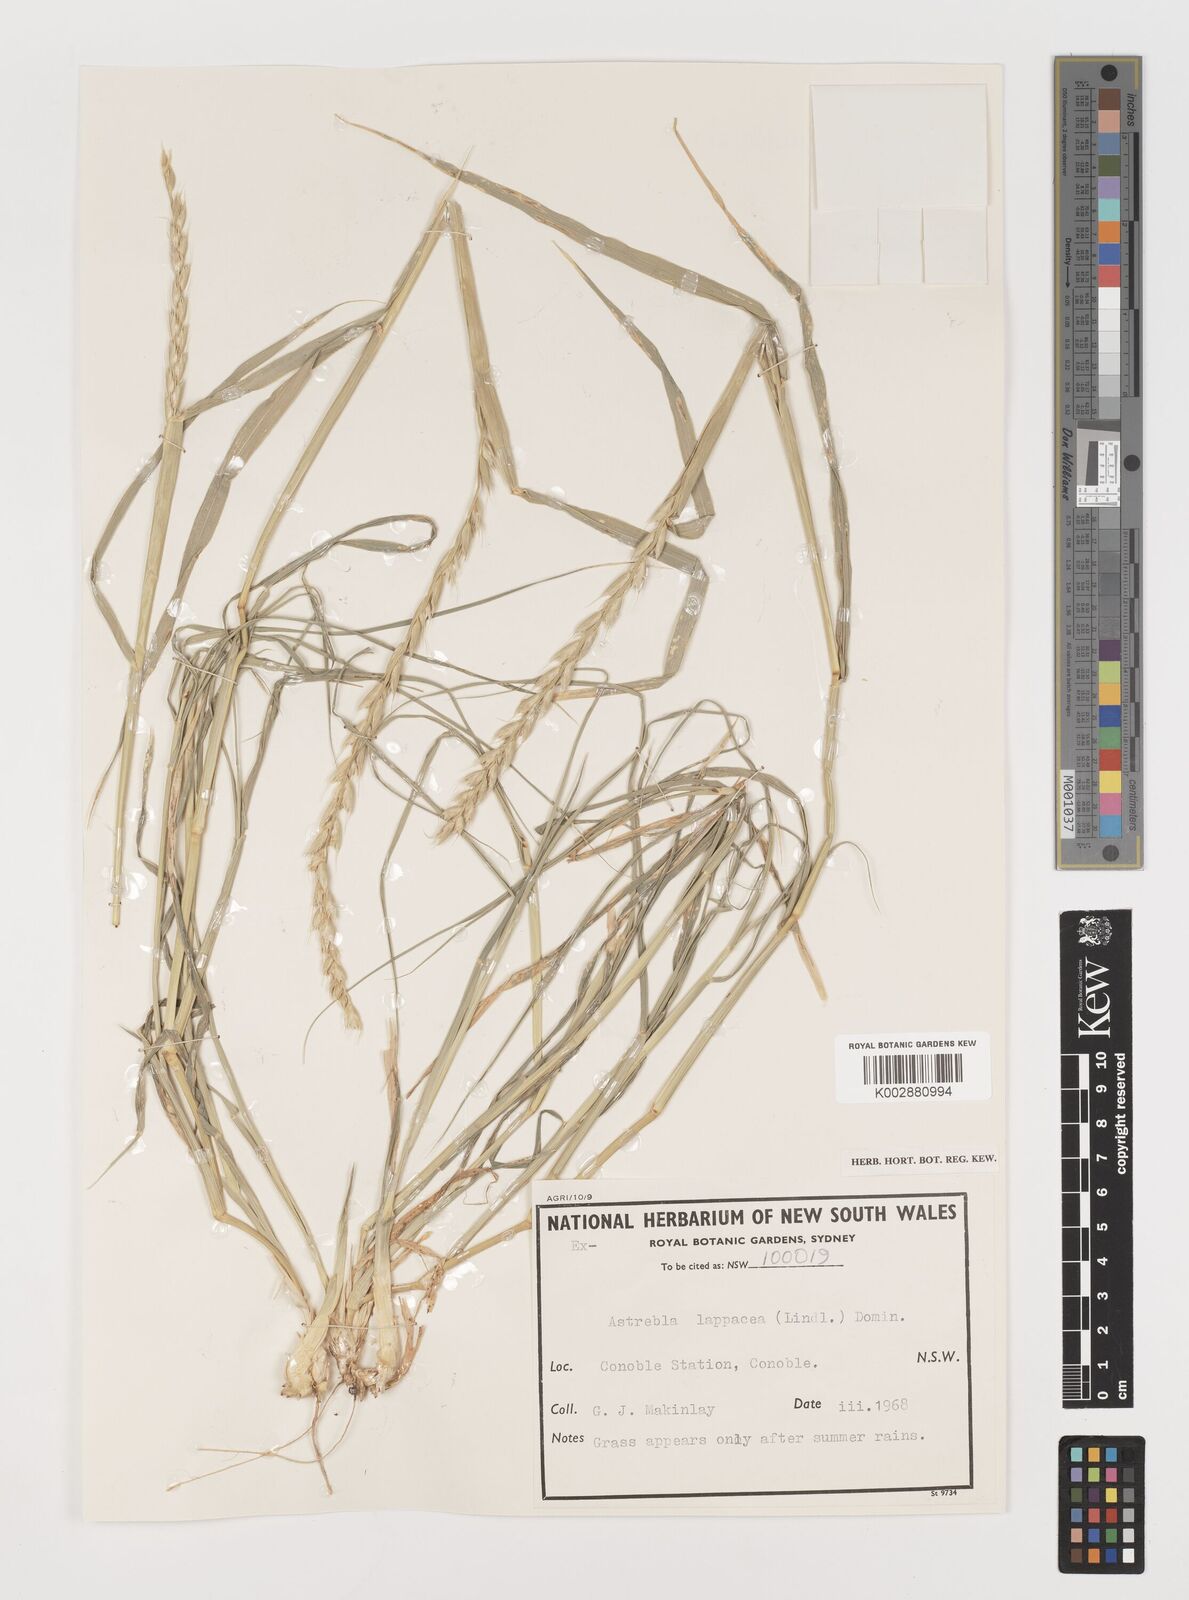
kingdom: Plantae
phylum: Tracheophyta
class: Liliopsida
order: Poales
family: Poaceae
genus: Astrebla
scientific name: Astrebla lappacea
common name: Curly mitchell grass
